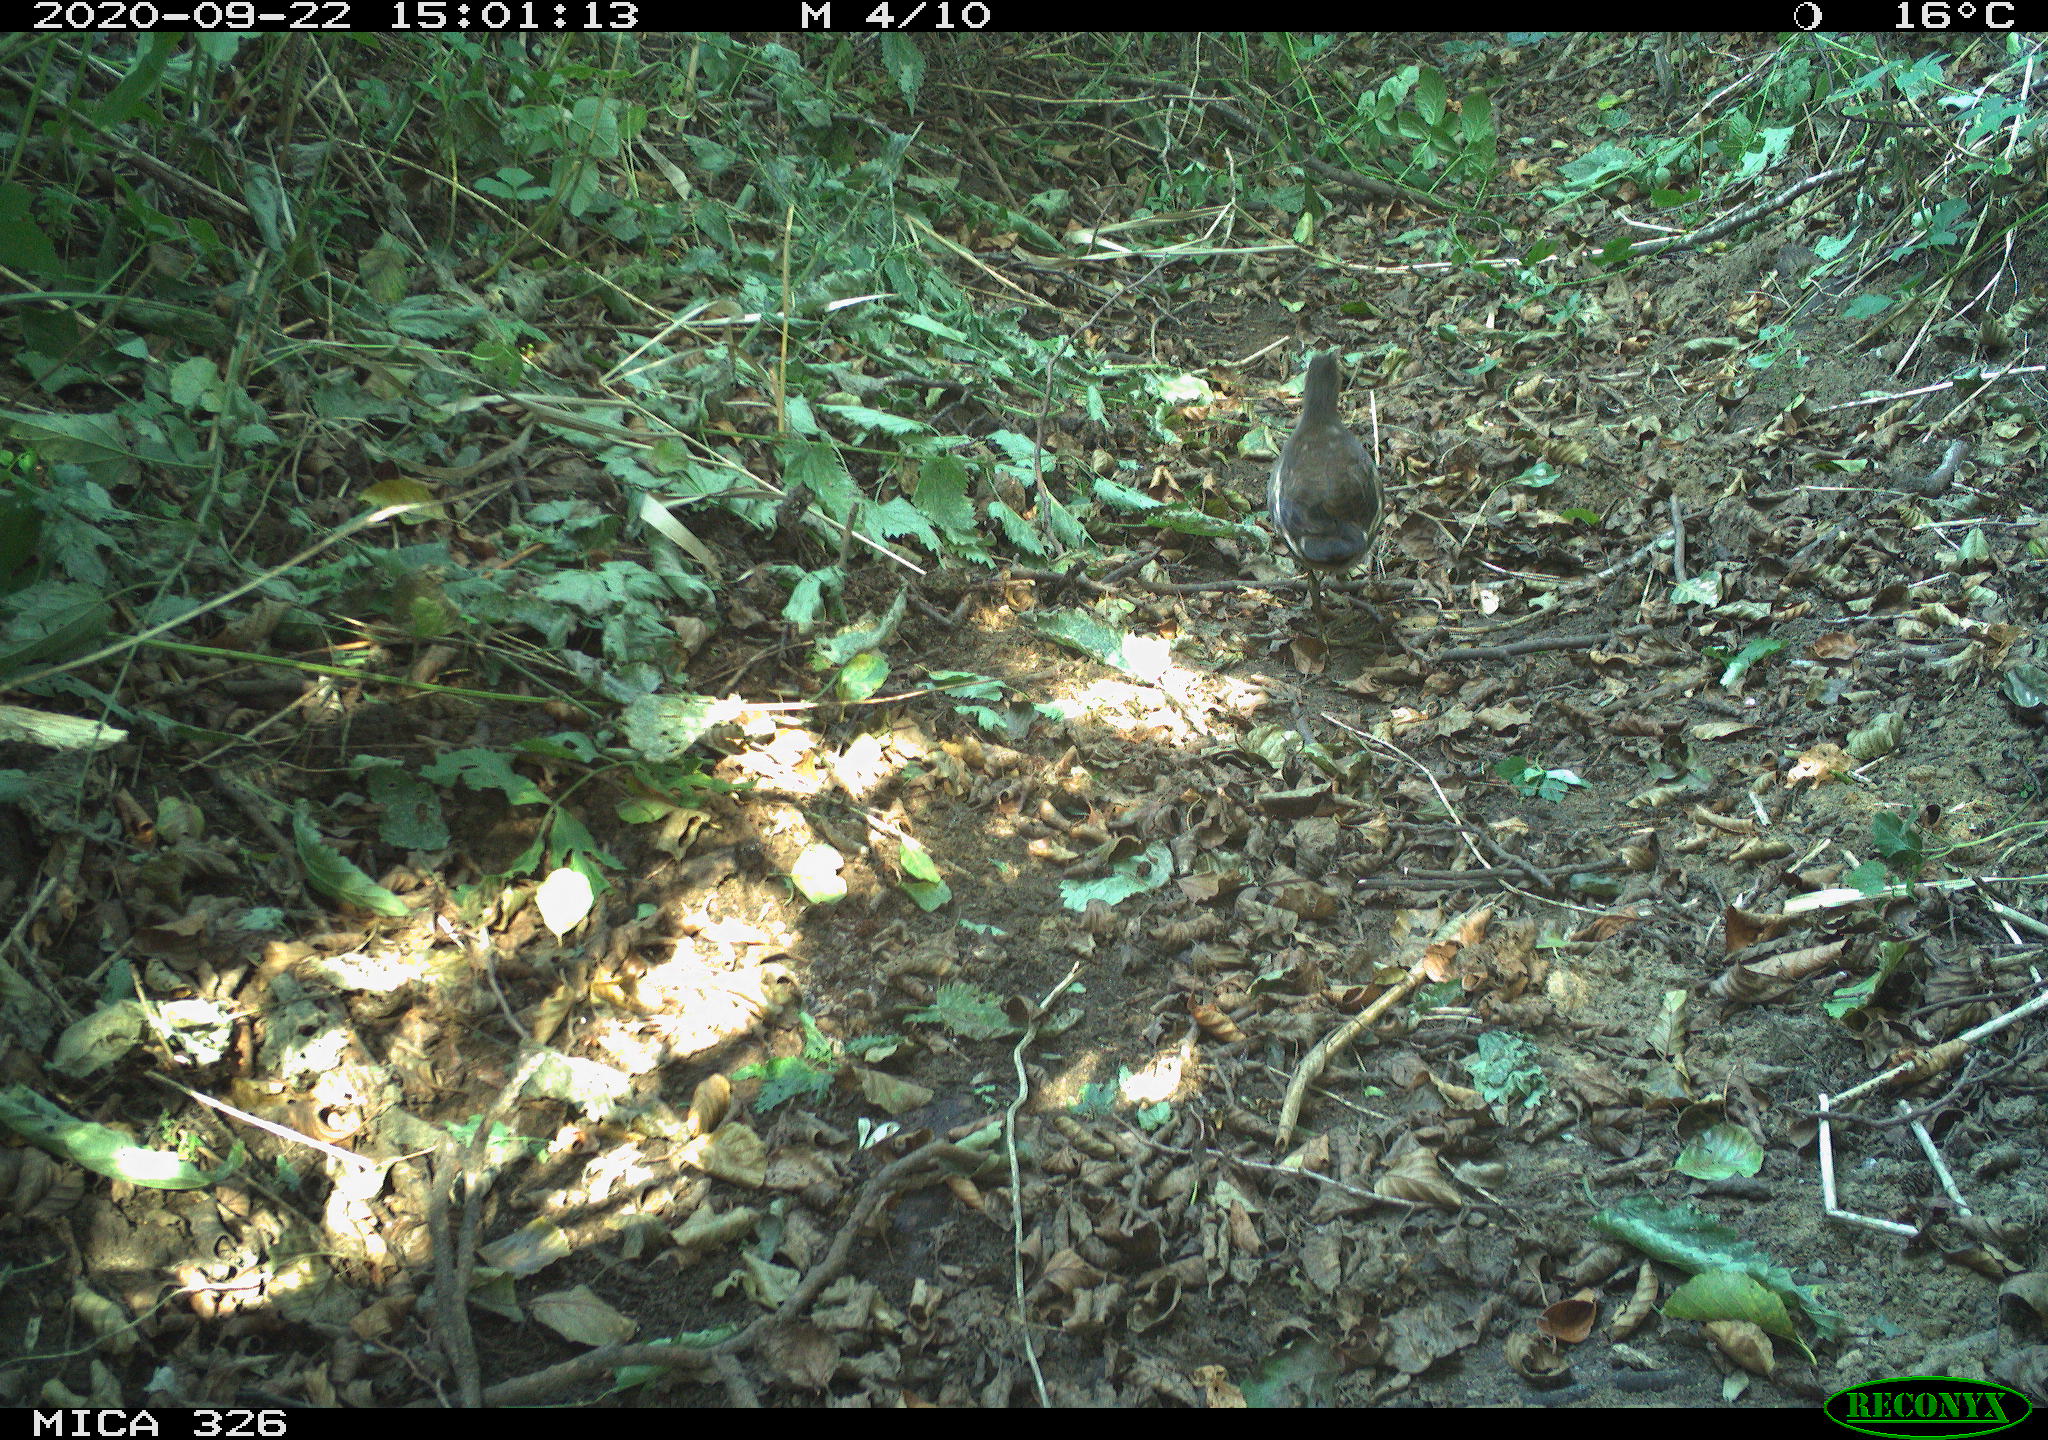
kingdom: Animalia
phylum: Chordata
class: Aves
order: Gruiformes
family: Rallidae
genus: Gallinula
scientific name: Gallinula chloropus
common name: Common moorhen
